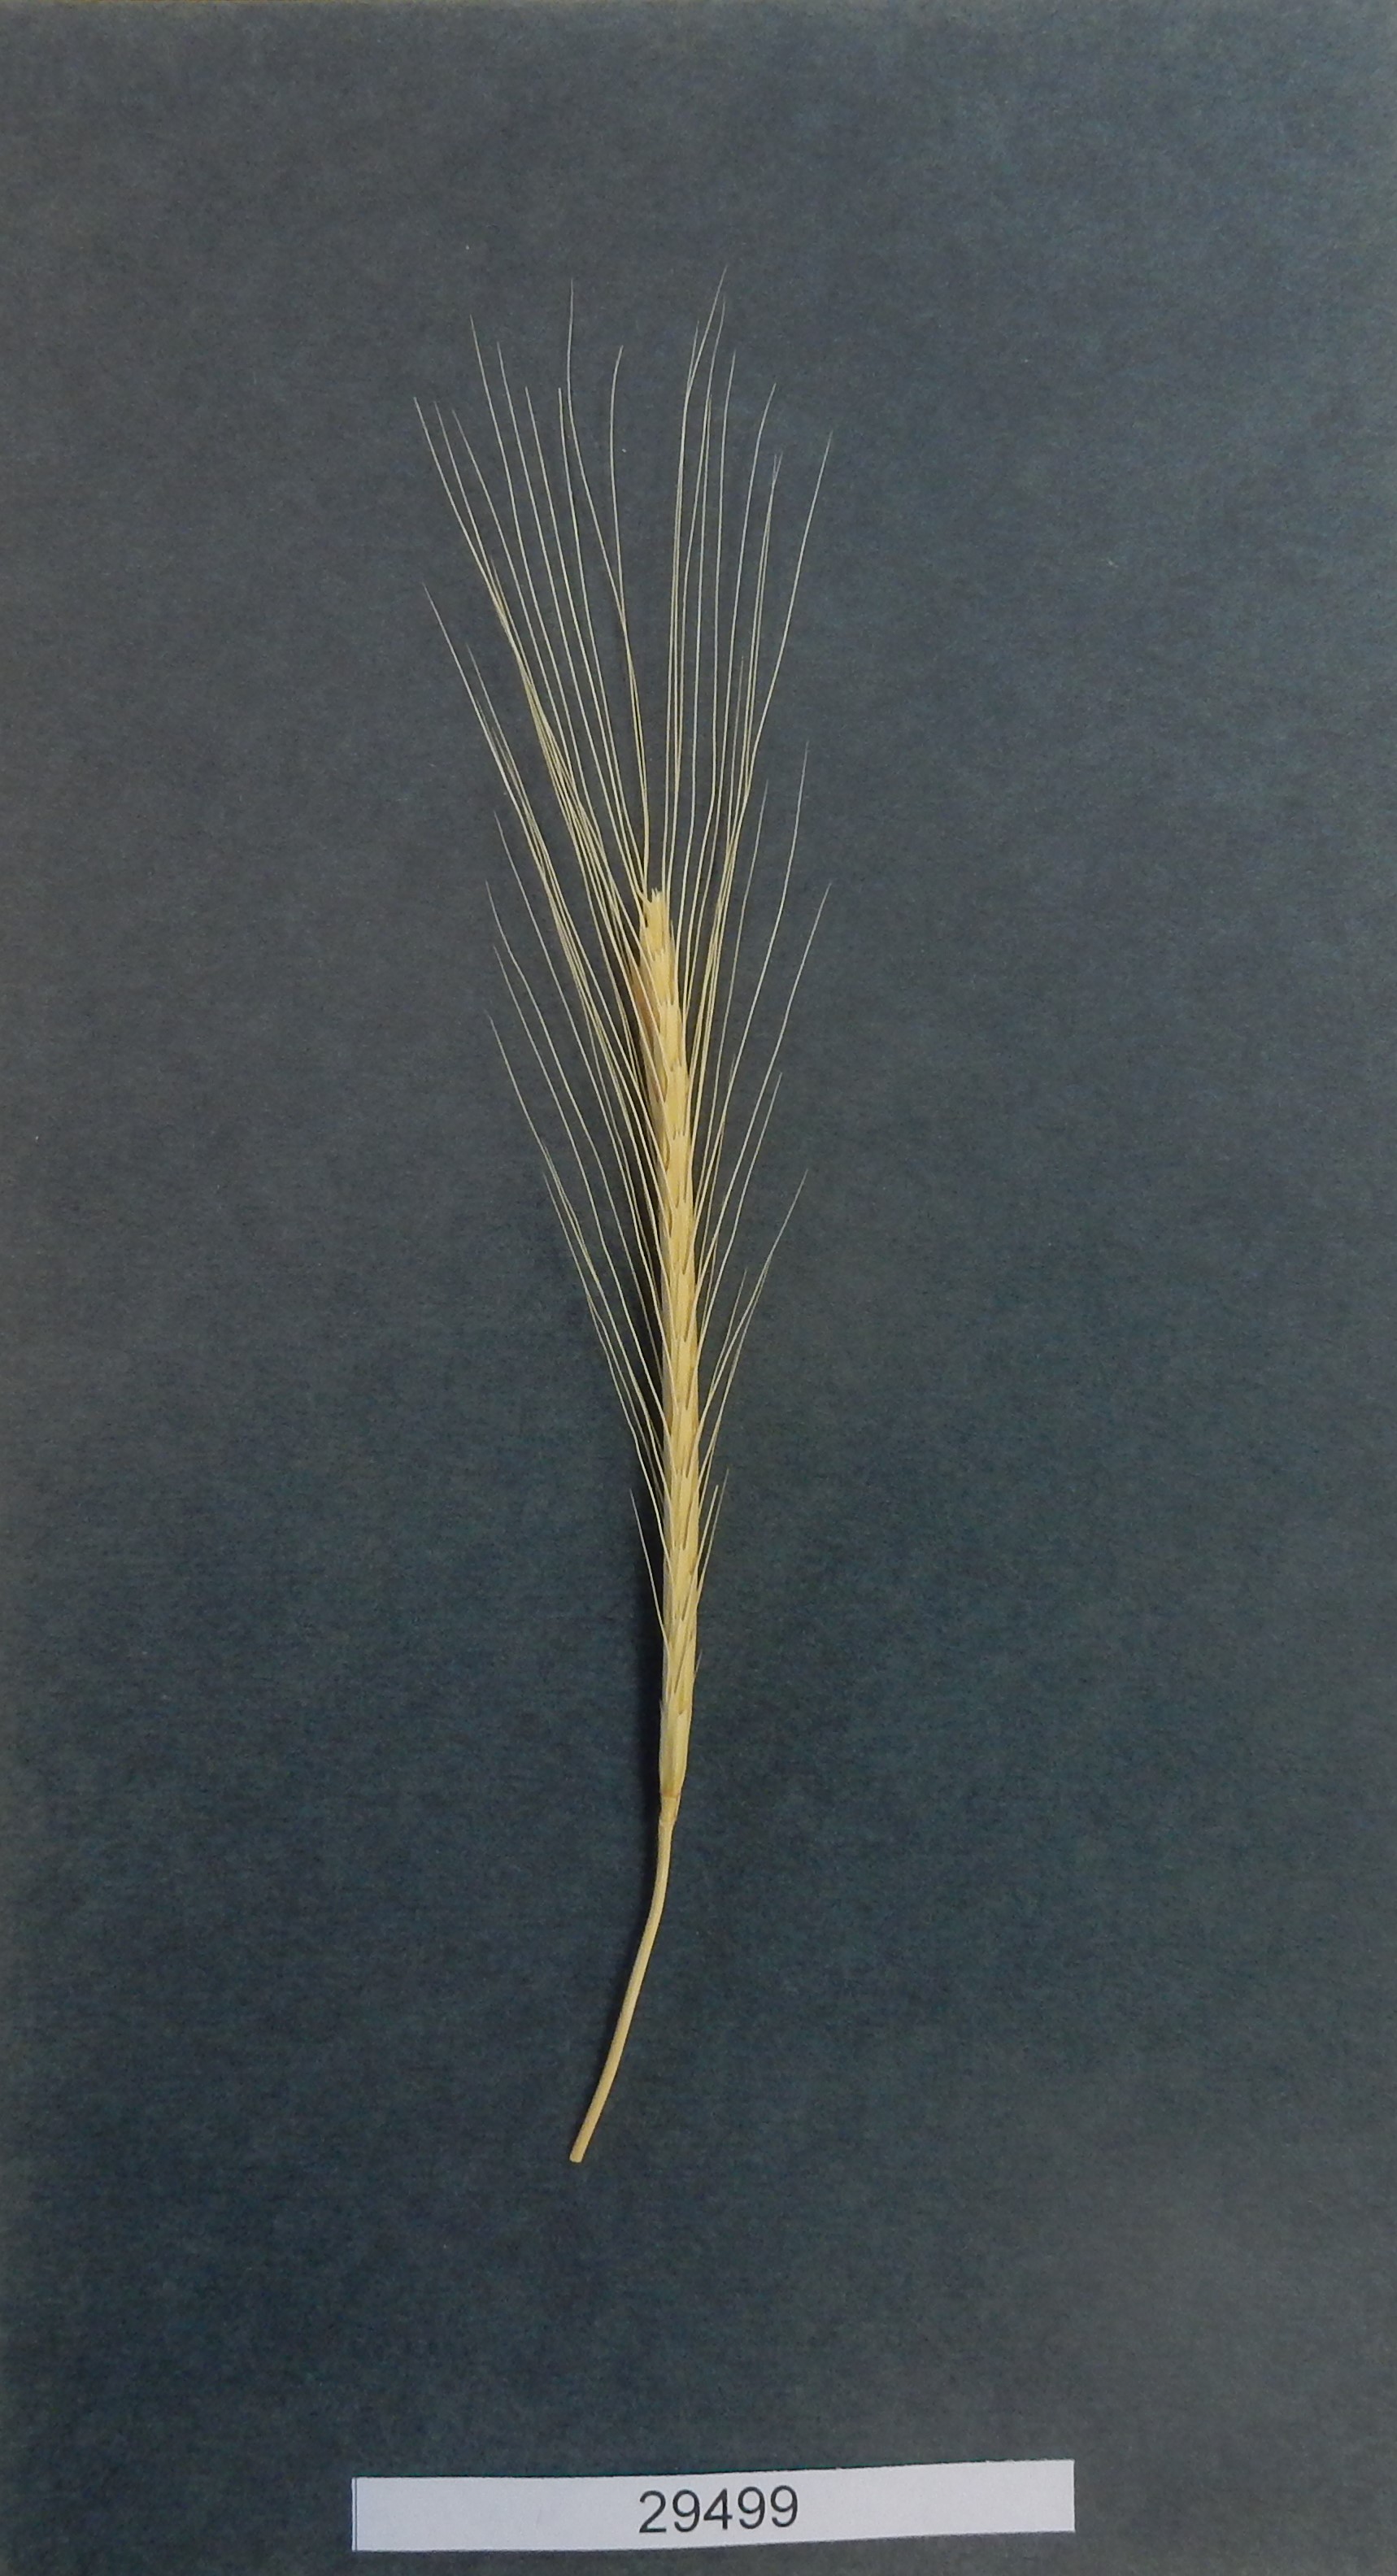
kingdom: Plantae
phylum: Tracheophyta
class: Liliopsida
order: Poales
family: Poaceae
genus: Triticum
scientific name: Triticum urartu
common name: Red wild einkorn
